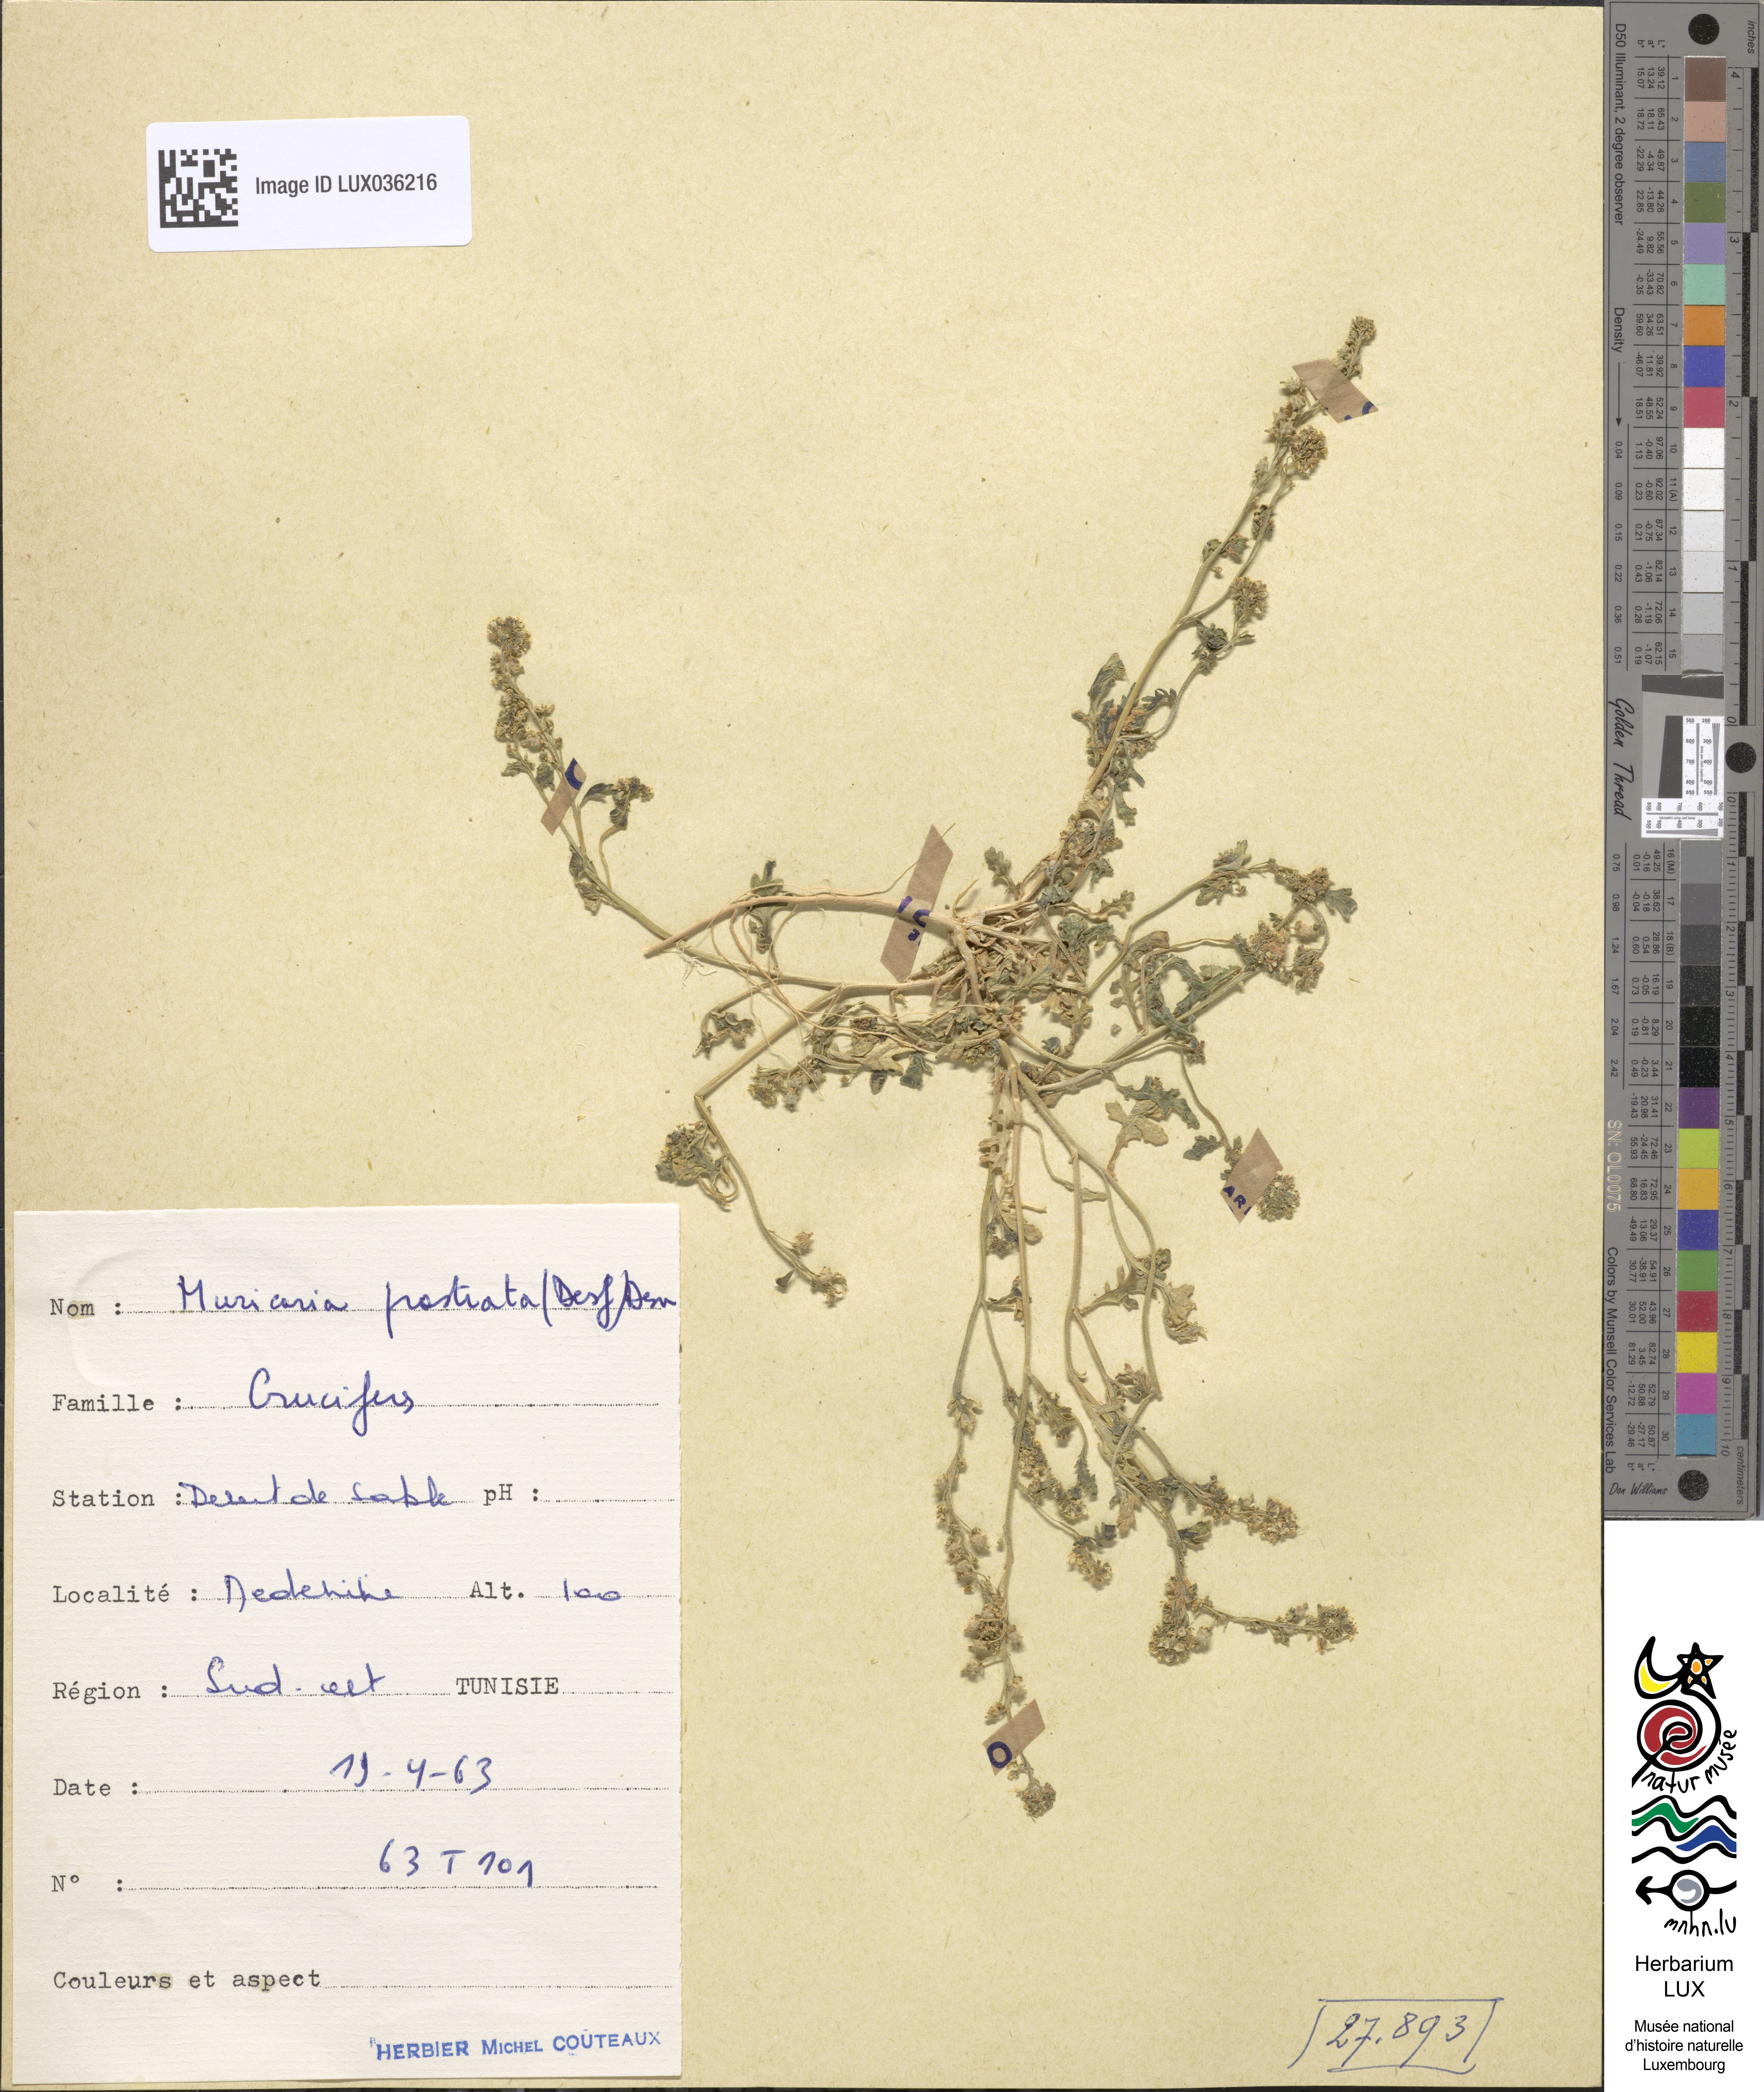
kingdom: Plantae
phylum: Tracheophyta
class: Magnoliopsida
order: Brassicales
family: Brassicaceae
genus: Muricaria
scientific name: Muricaria prostrata
